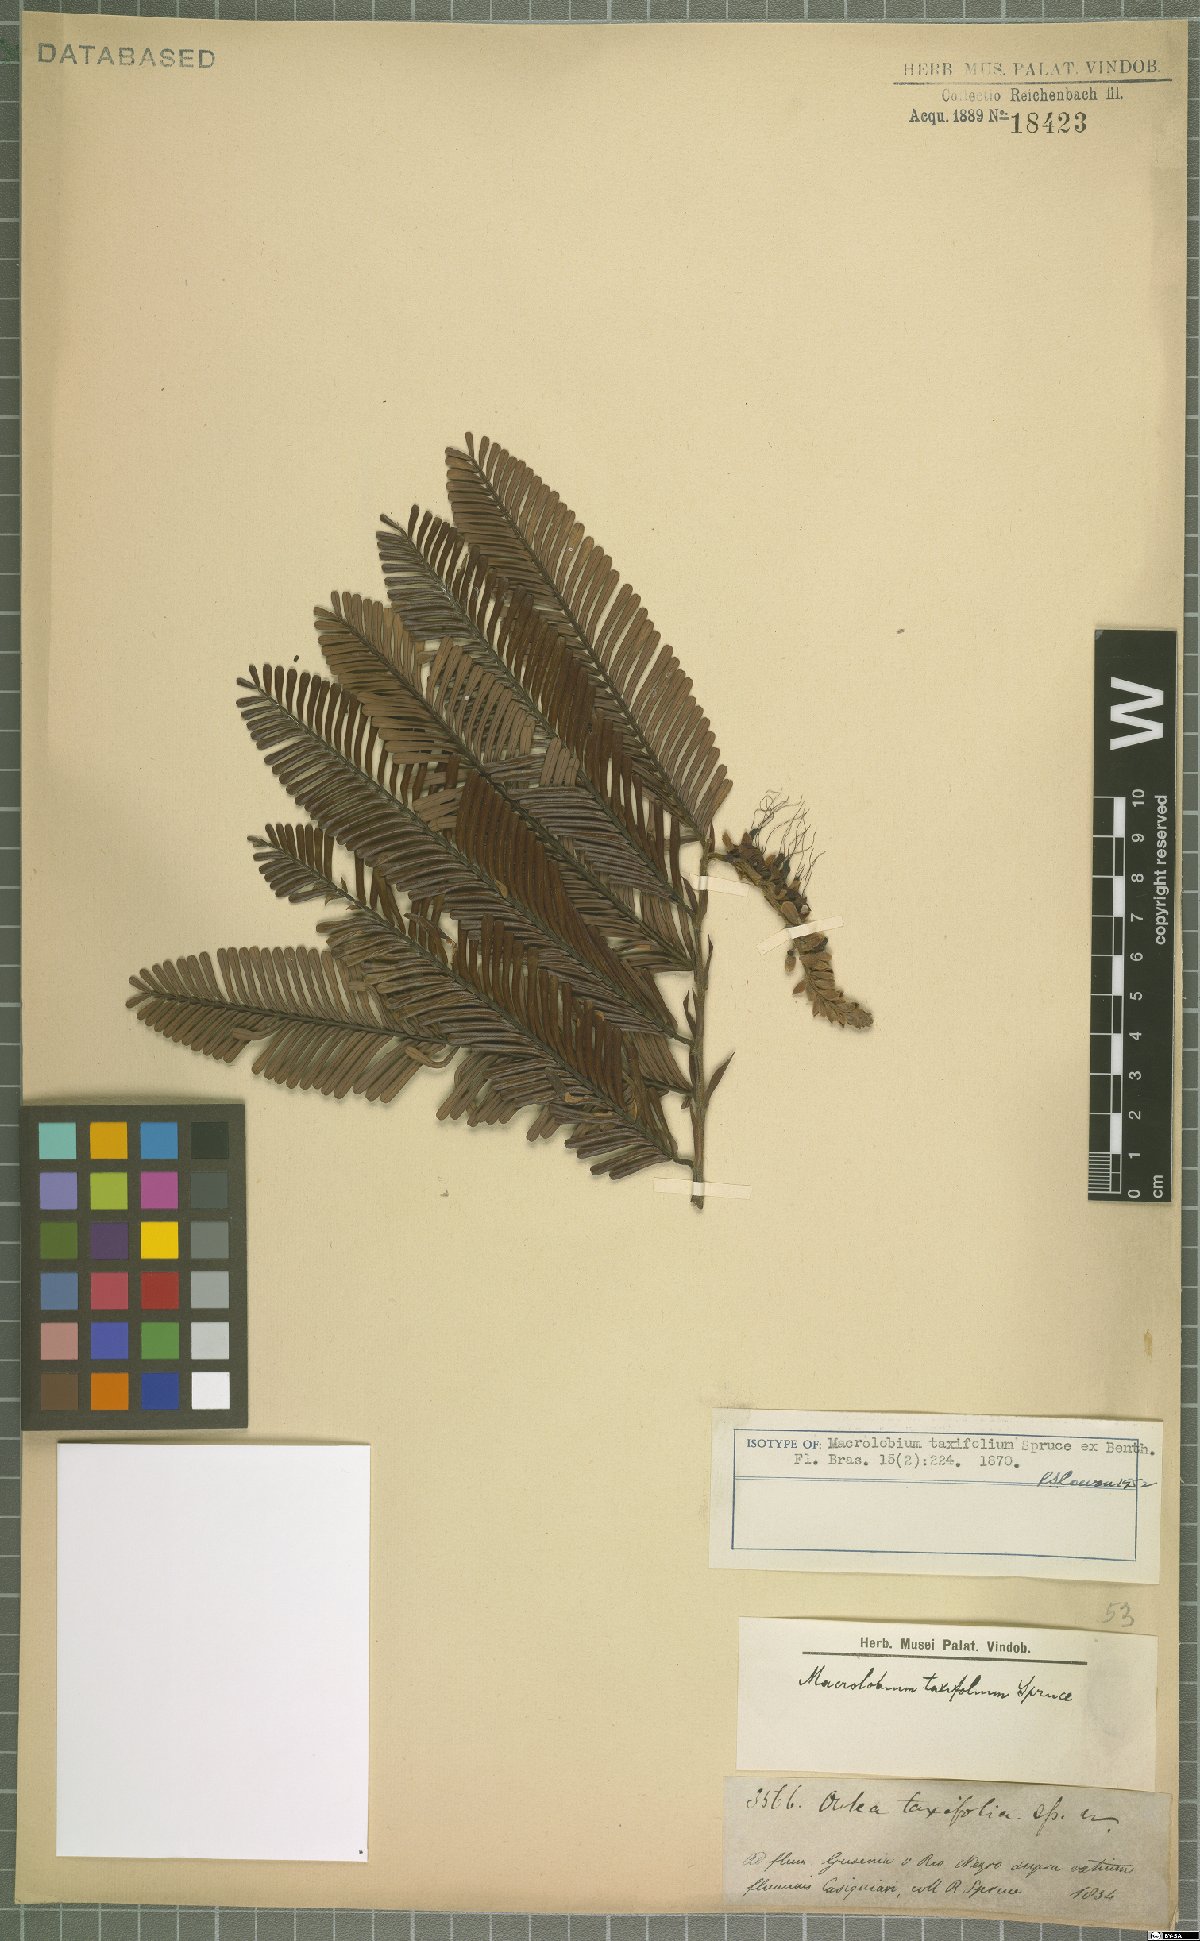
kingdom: Plantae
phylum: Tracheophyta
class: Magnoliopsida
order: Fabales
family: Fabaceae
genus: Macrolobium
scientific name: Macrolobium taxifolium
